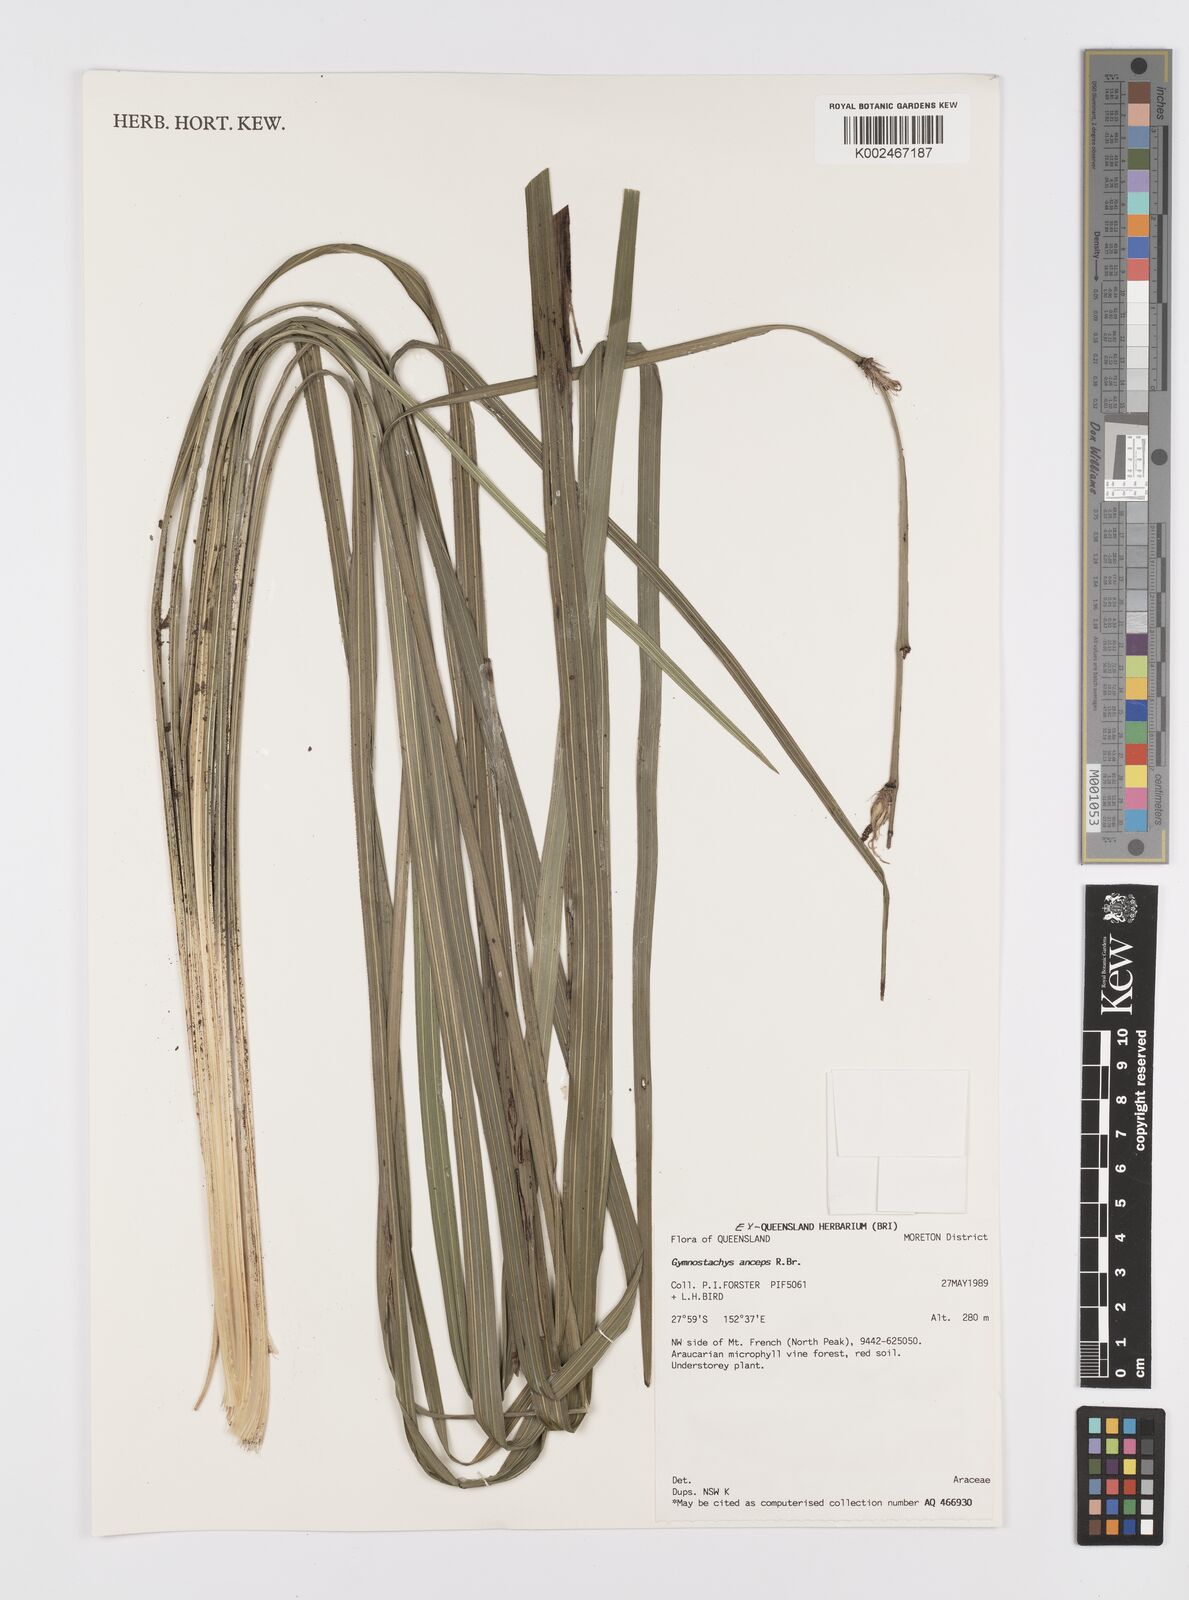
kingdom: Plantae
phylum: Tracheophyta
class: Liliopsida
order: Alismatales
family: Araceae
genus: Gymnostachys
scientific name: Gymnostachys anceps
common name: Settler's-flax
